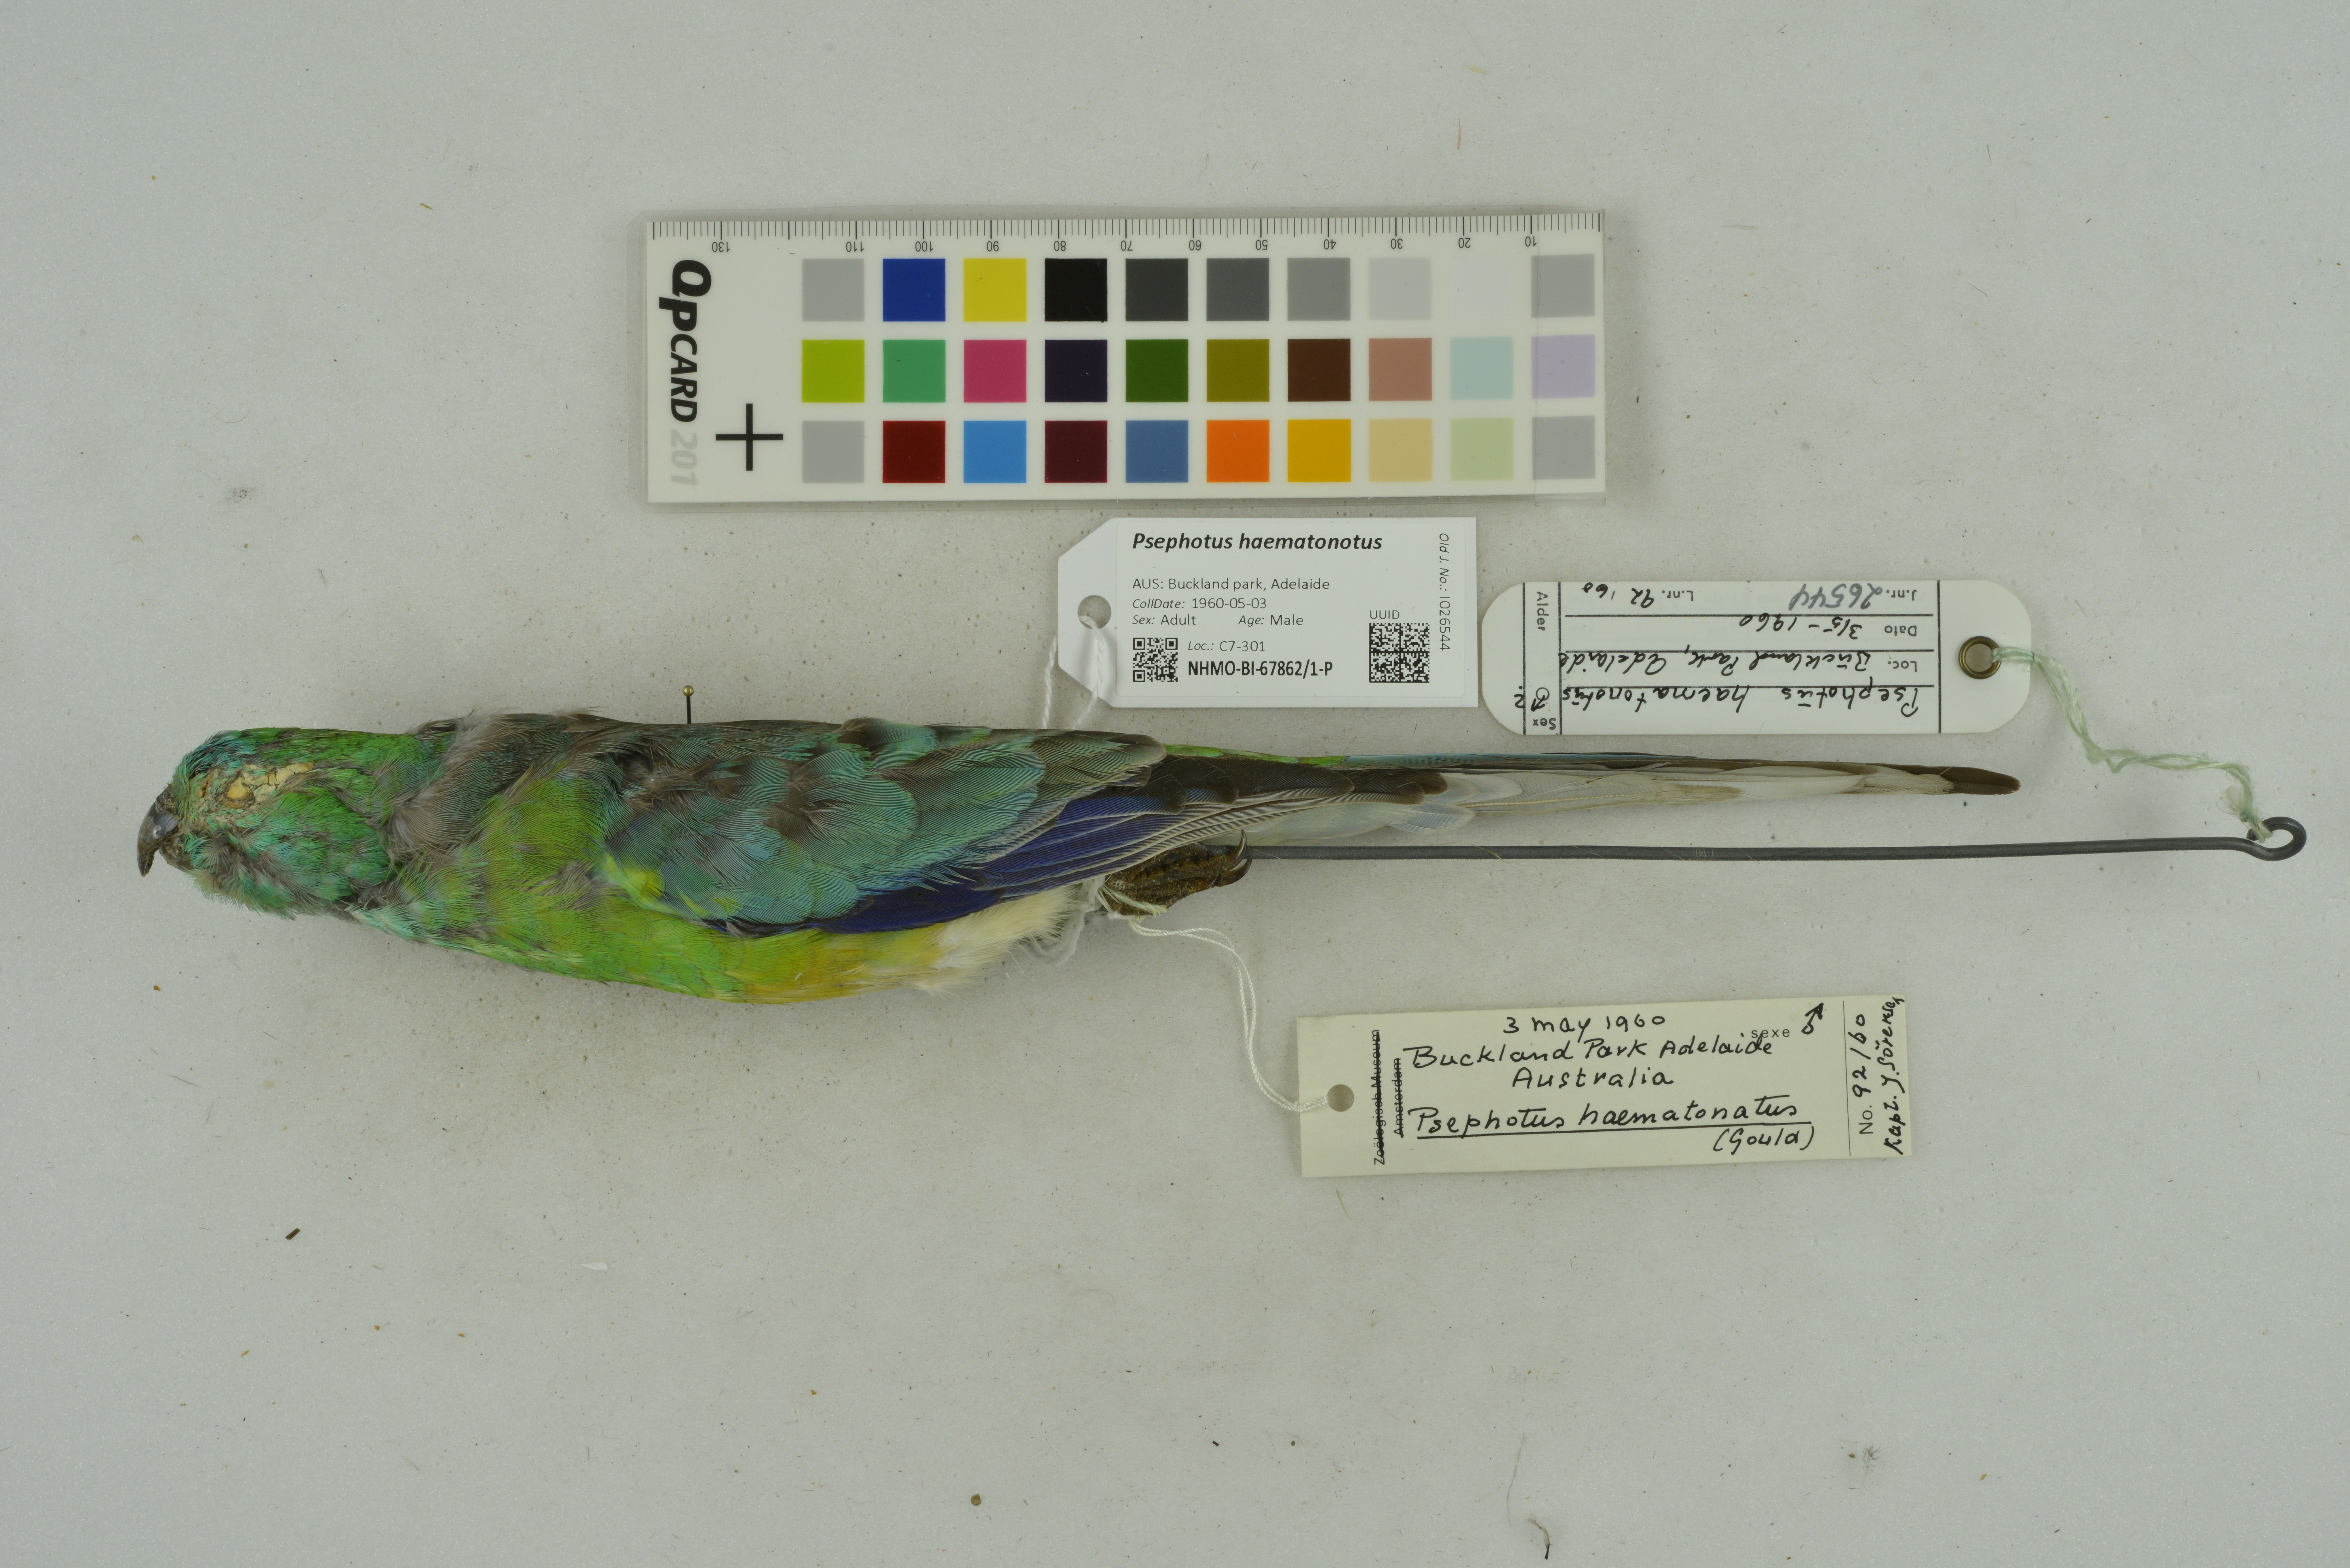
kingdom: Animalia
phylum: Chordata
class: Aves
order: Psittaciformes
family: Psittacidae
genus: Psephotus
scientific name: Psephotus haematonotus
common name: Red-rumped parrot
